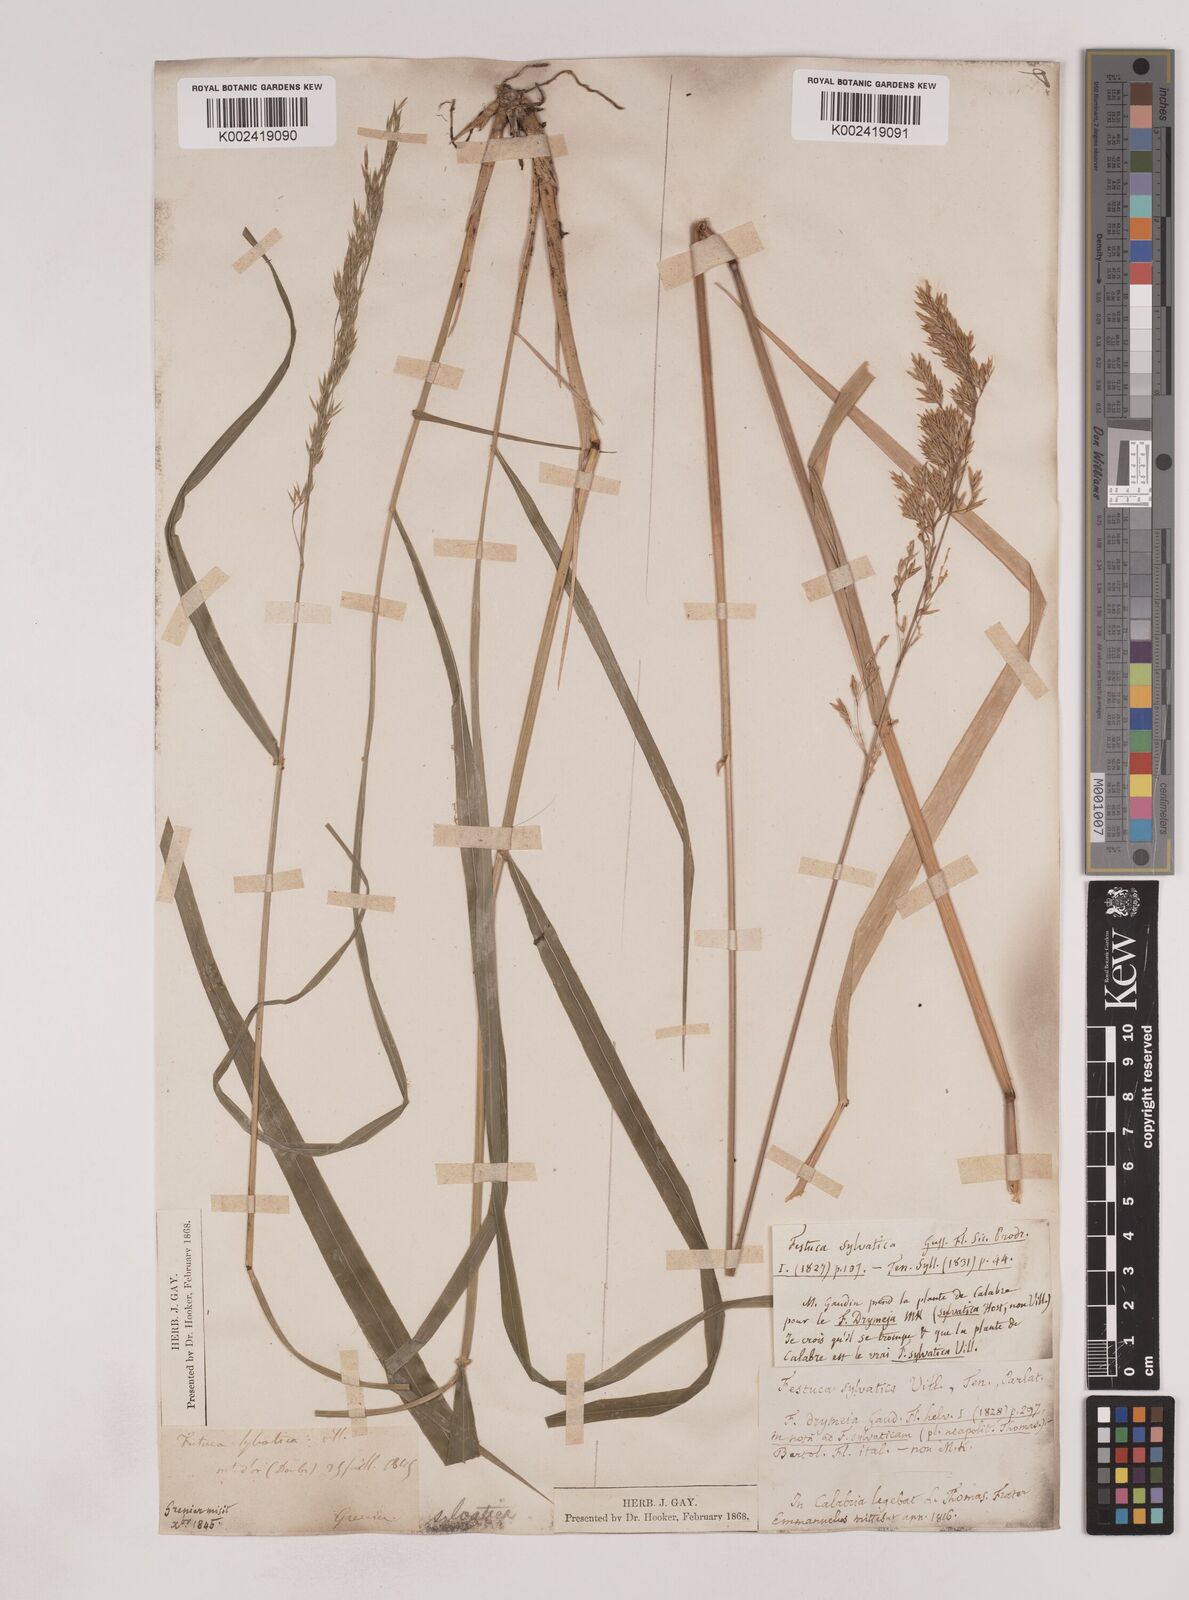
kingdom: Plantae
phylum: Tracheophyta
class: Liliopsida
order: Poales
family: Poaceae
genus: Festuca
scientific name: Festuca drymeja
